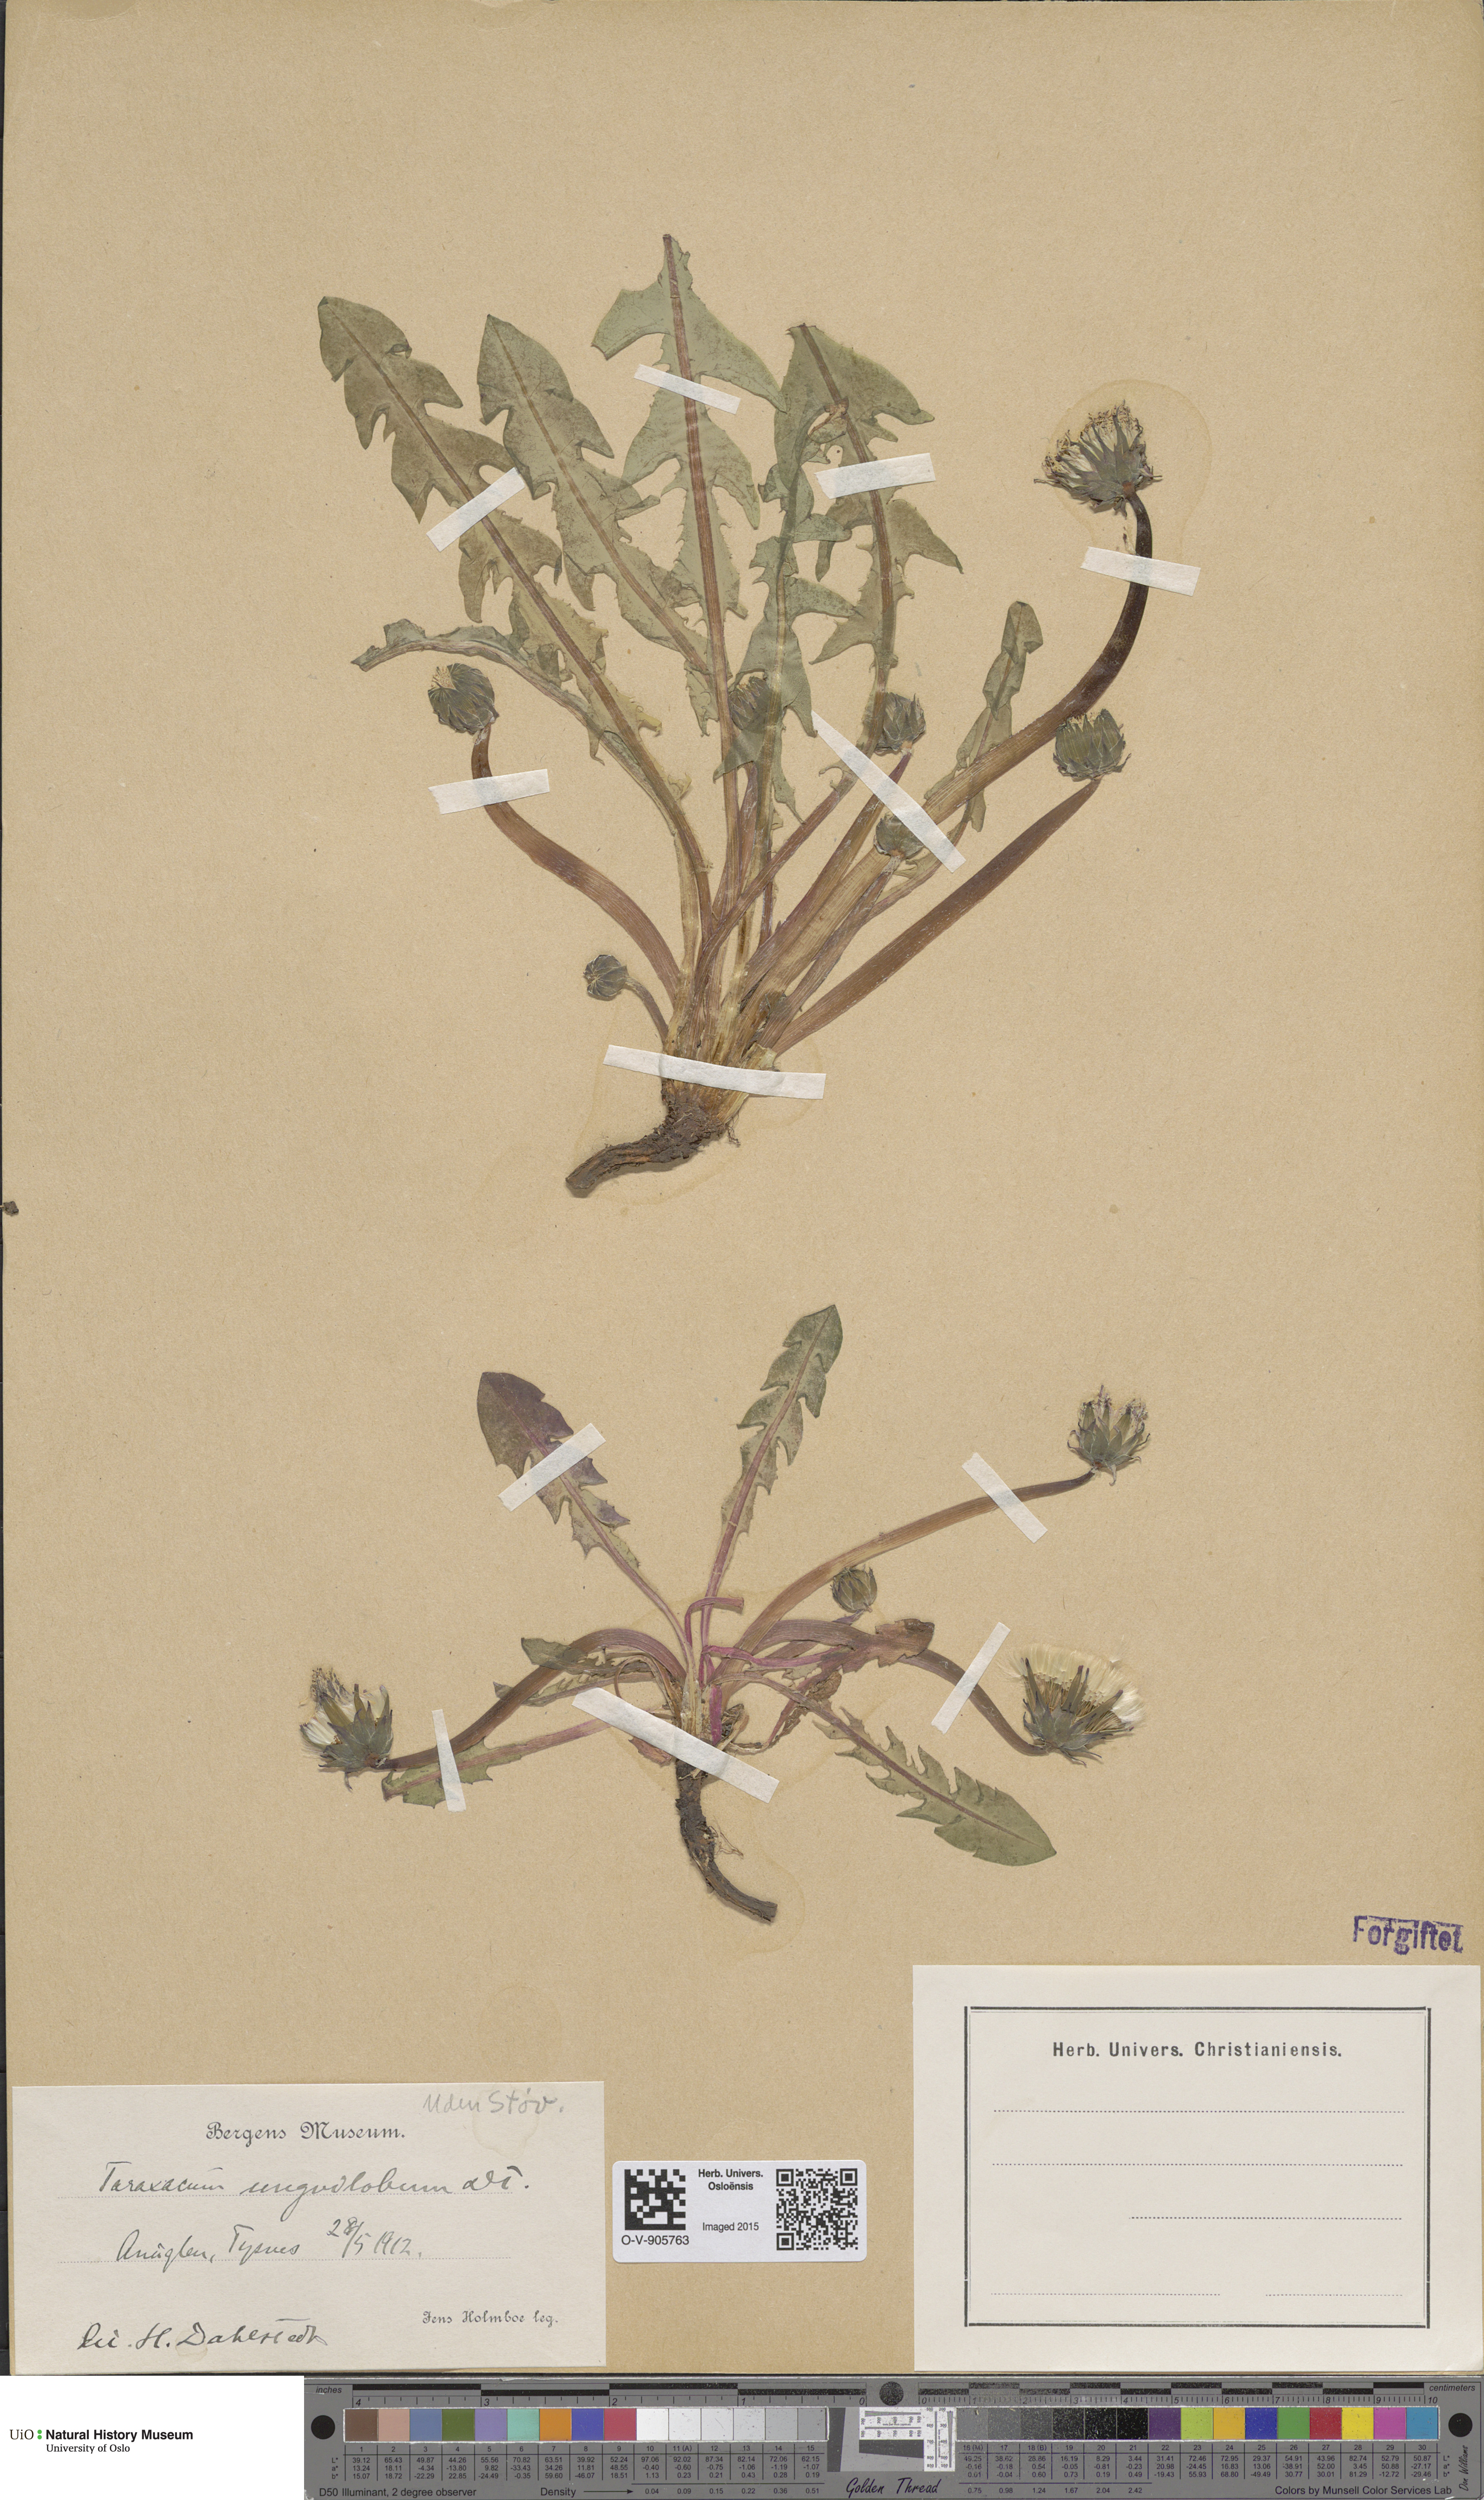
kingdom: Plantae
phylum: Tracheophyta
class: Magnoliopsida
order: Asterales
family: Asteraceae
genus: Taraxacum
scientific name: Taraxacum unguilobum
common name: Claw-lobed dandelion
